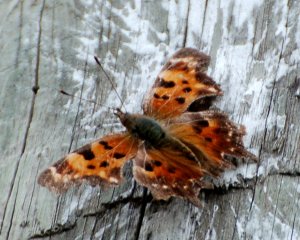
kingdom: Animalia
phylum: Arthropoda
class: Insecta
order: Lepidoptera
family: Nymphalidae
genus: Polygonia
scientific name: Polygonia faunus
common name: Green Comma
